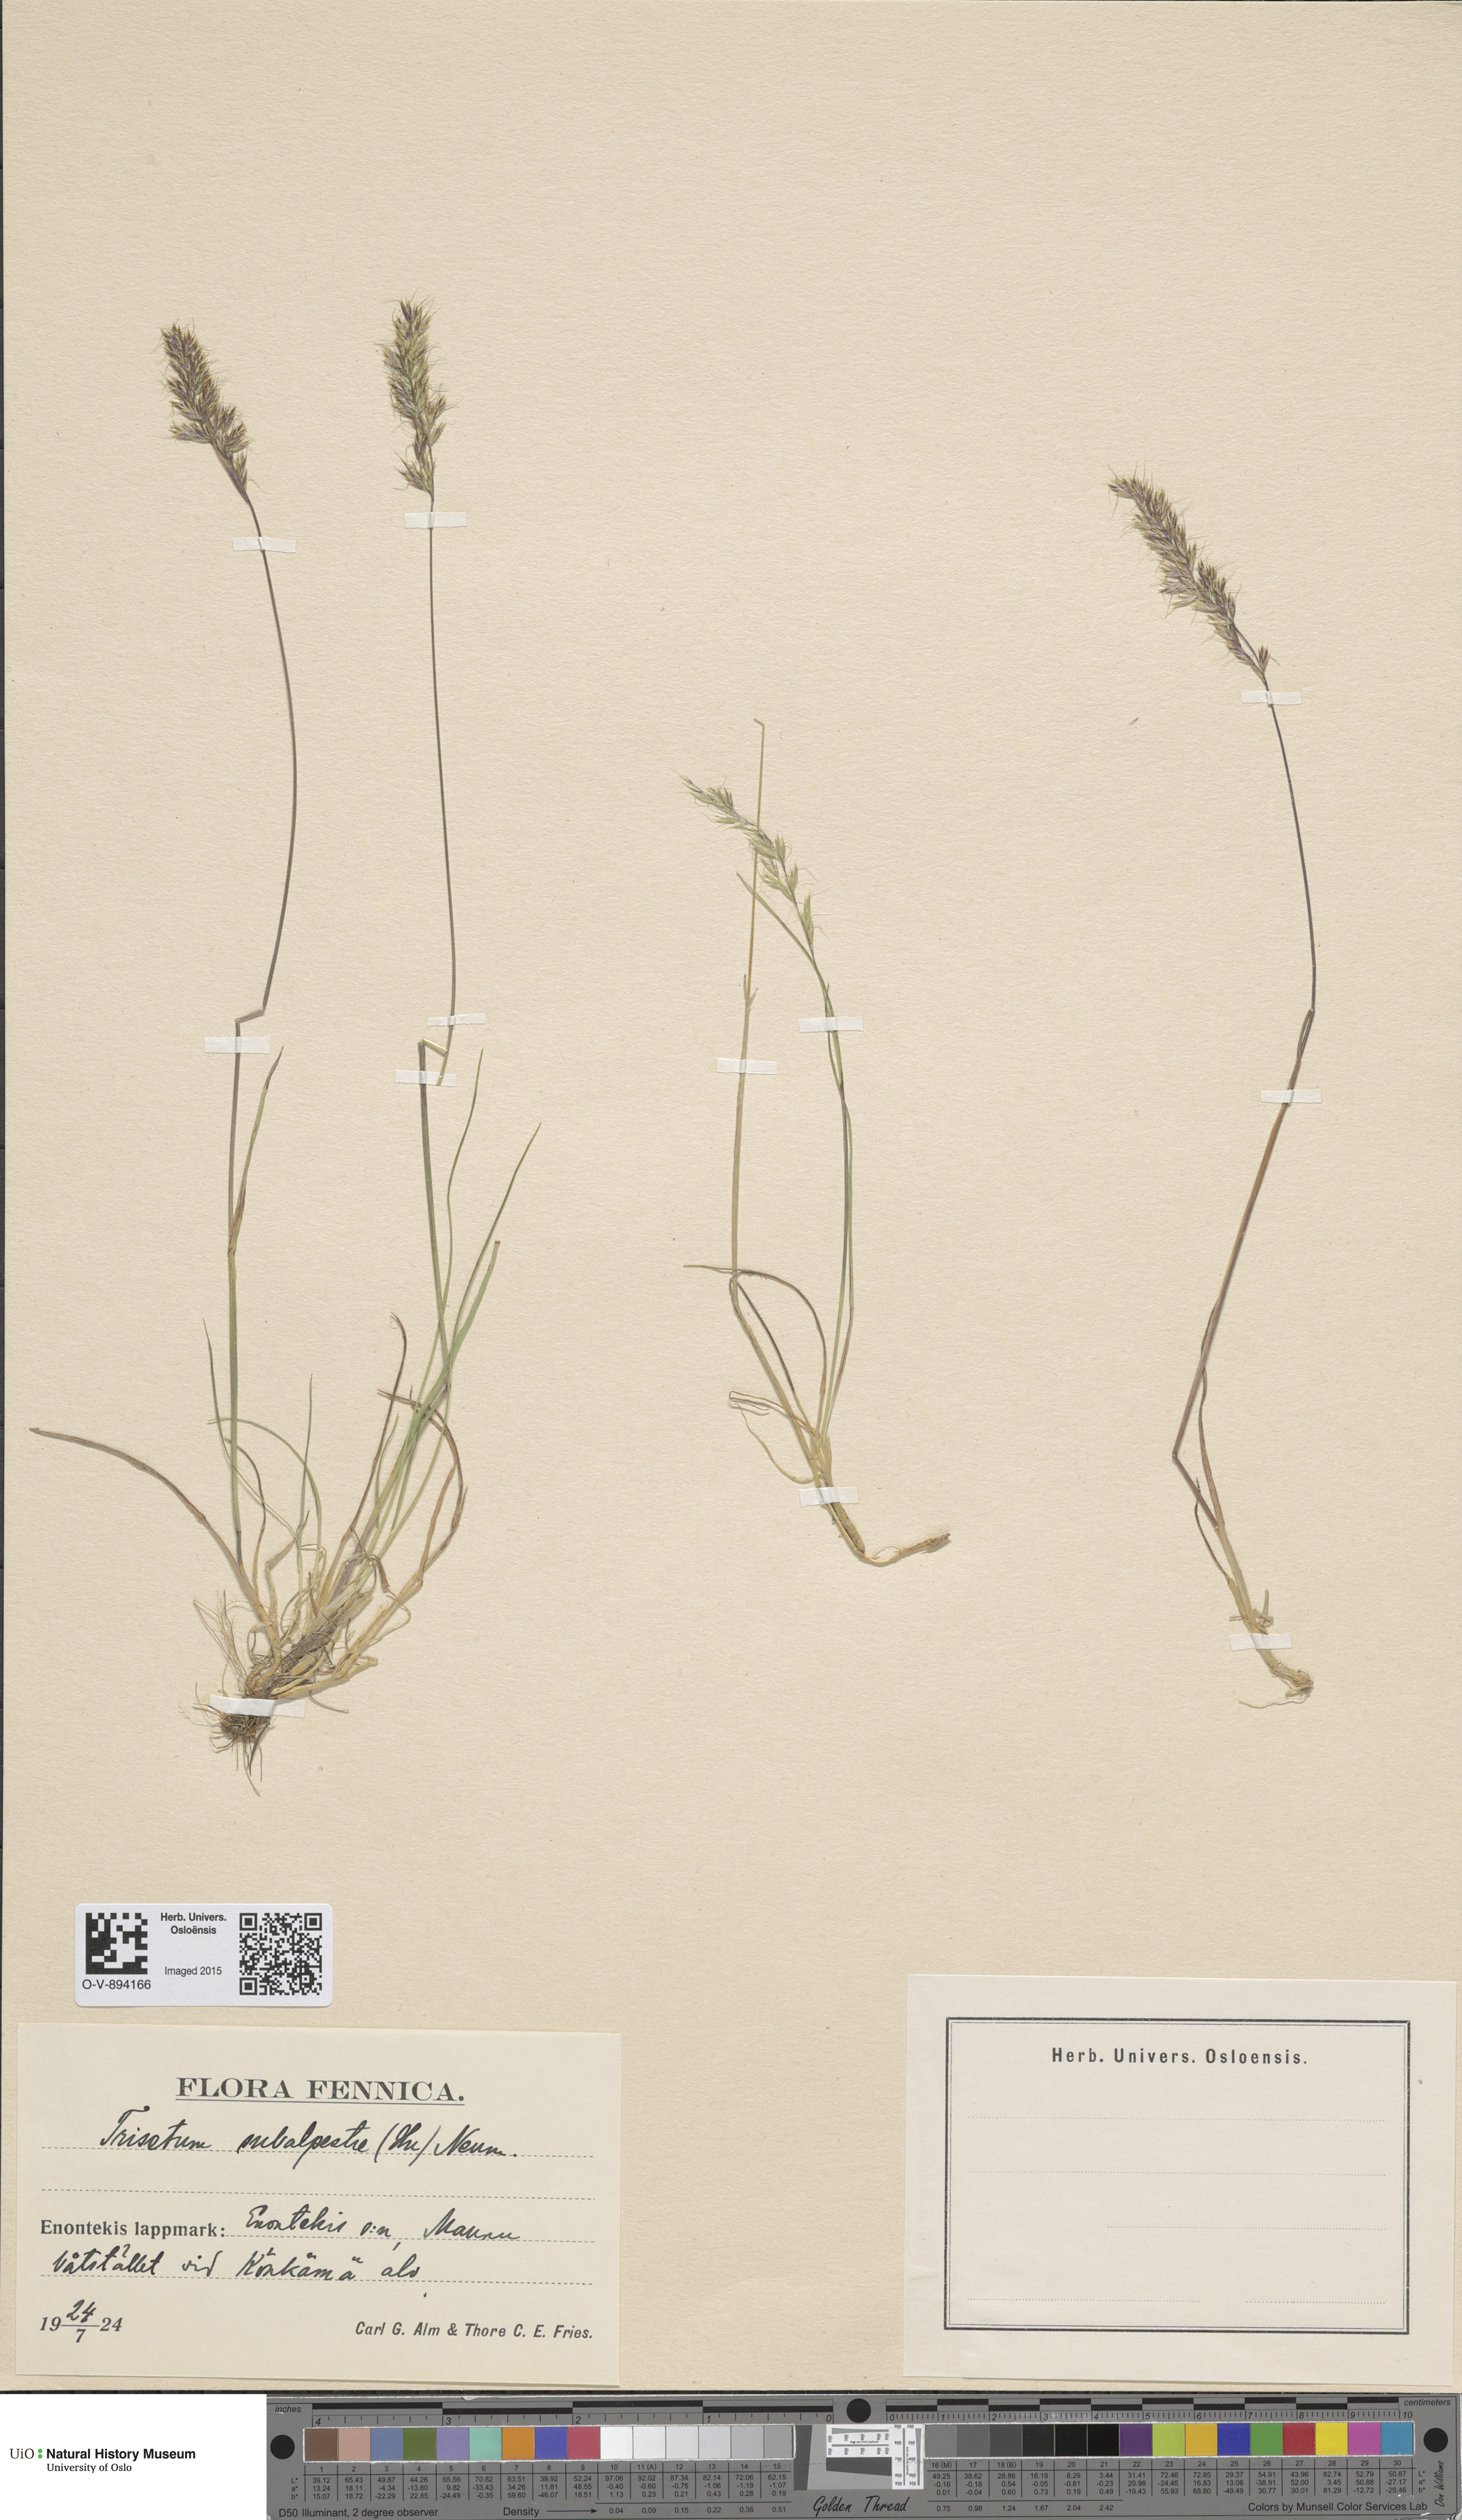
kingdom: Plantae
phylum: Tracheophyta
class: Liliopsida
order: Poales
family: Poaceae
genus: Koeleria
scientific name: Koeleria subalpestris
